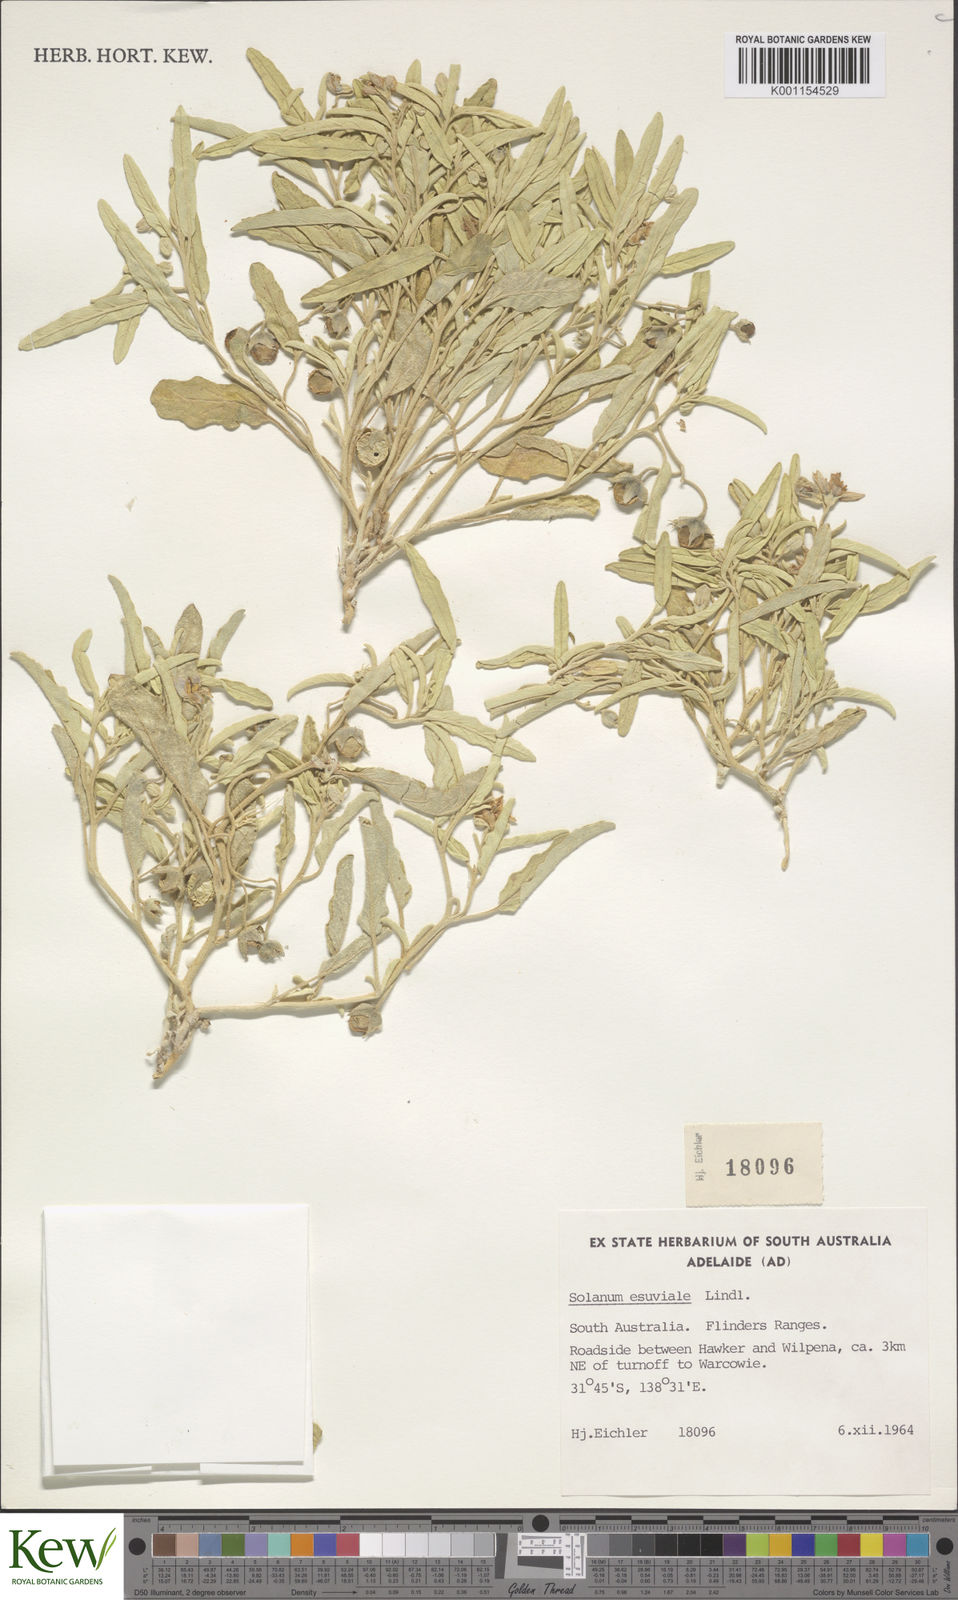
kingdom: Plantae
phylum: Tracheophyta
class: Magnoliopsida
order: Solanales
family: Solanaceae
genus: Solanum
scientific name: Solanum esuriale
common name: Wild tomato
